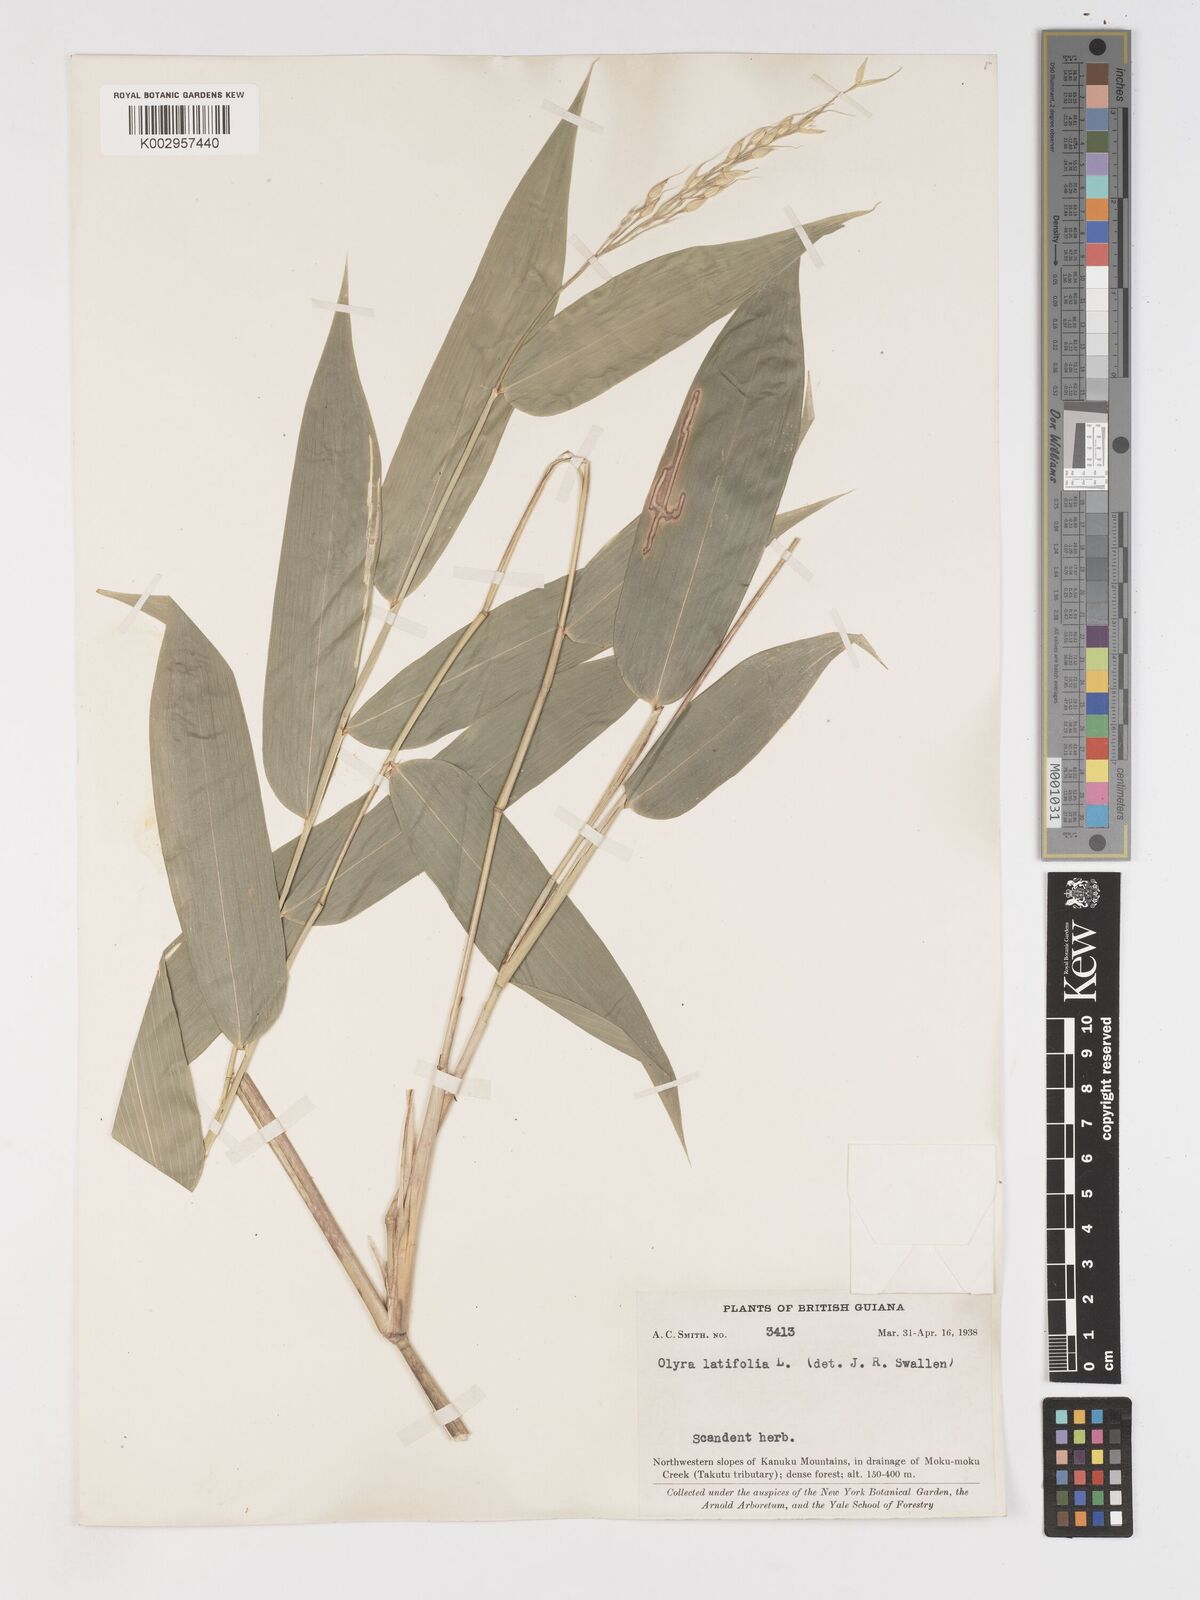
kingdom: Plantae
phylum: Tracheophyta
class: Liliopsida
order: Poales
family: Poaceae
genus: Olyra
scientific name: Olyra latifolia
